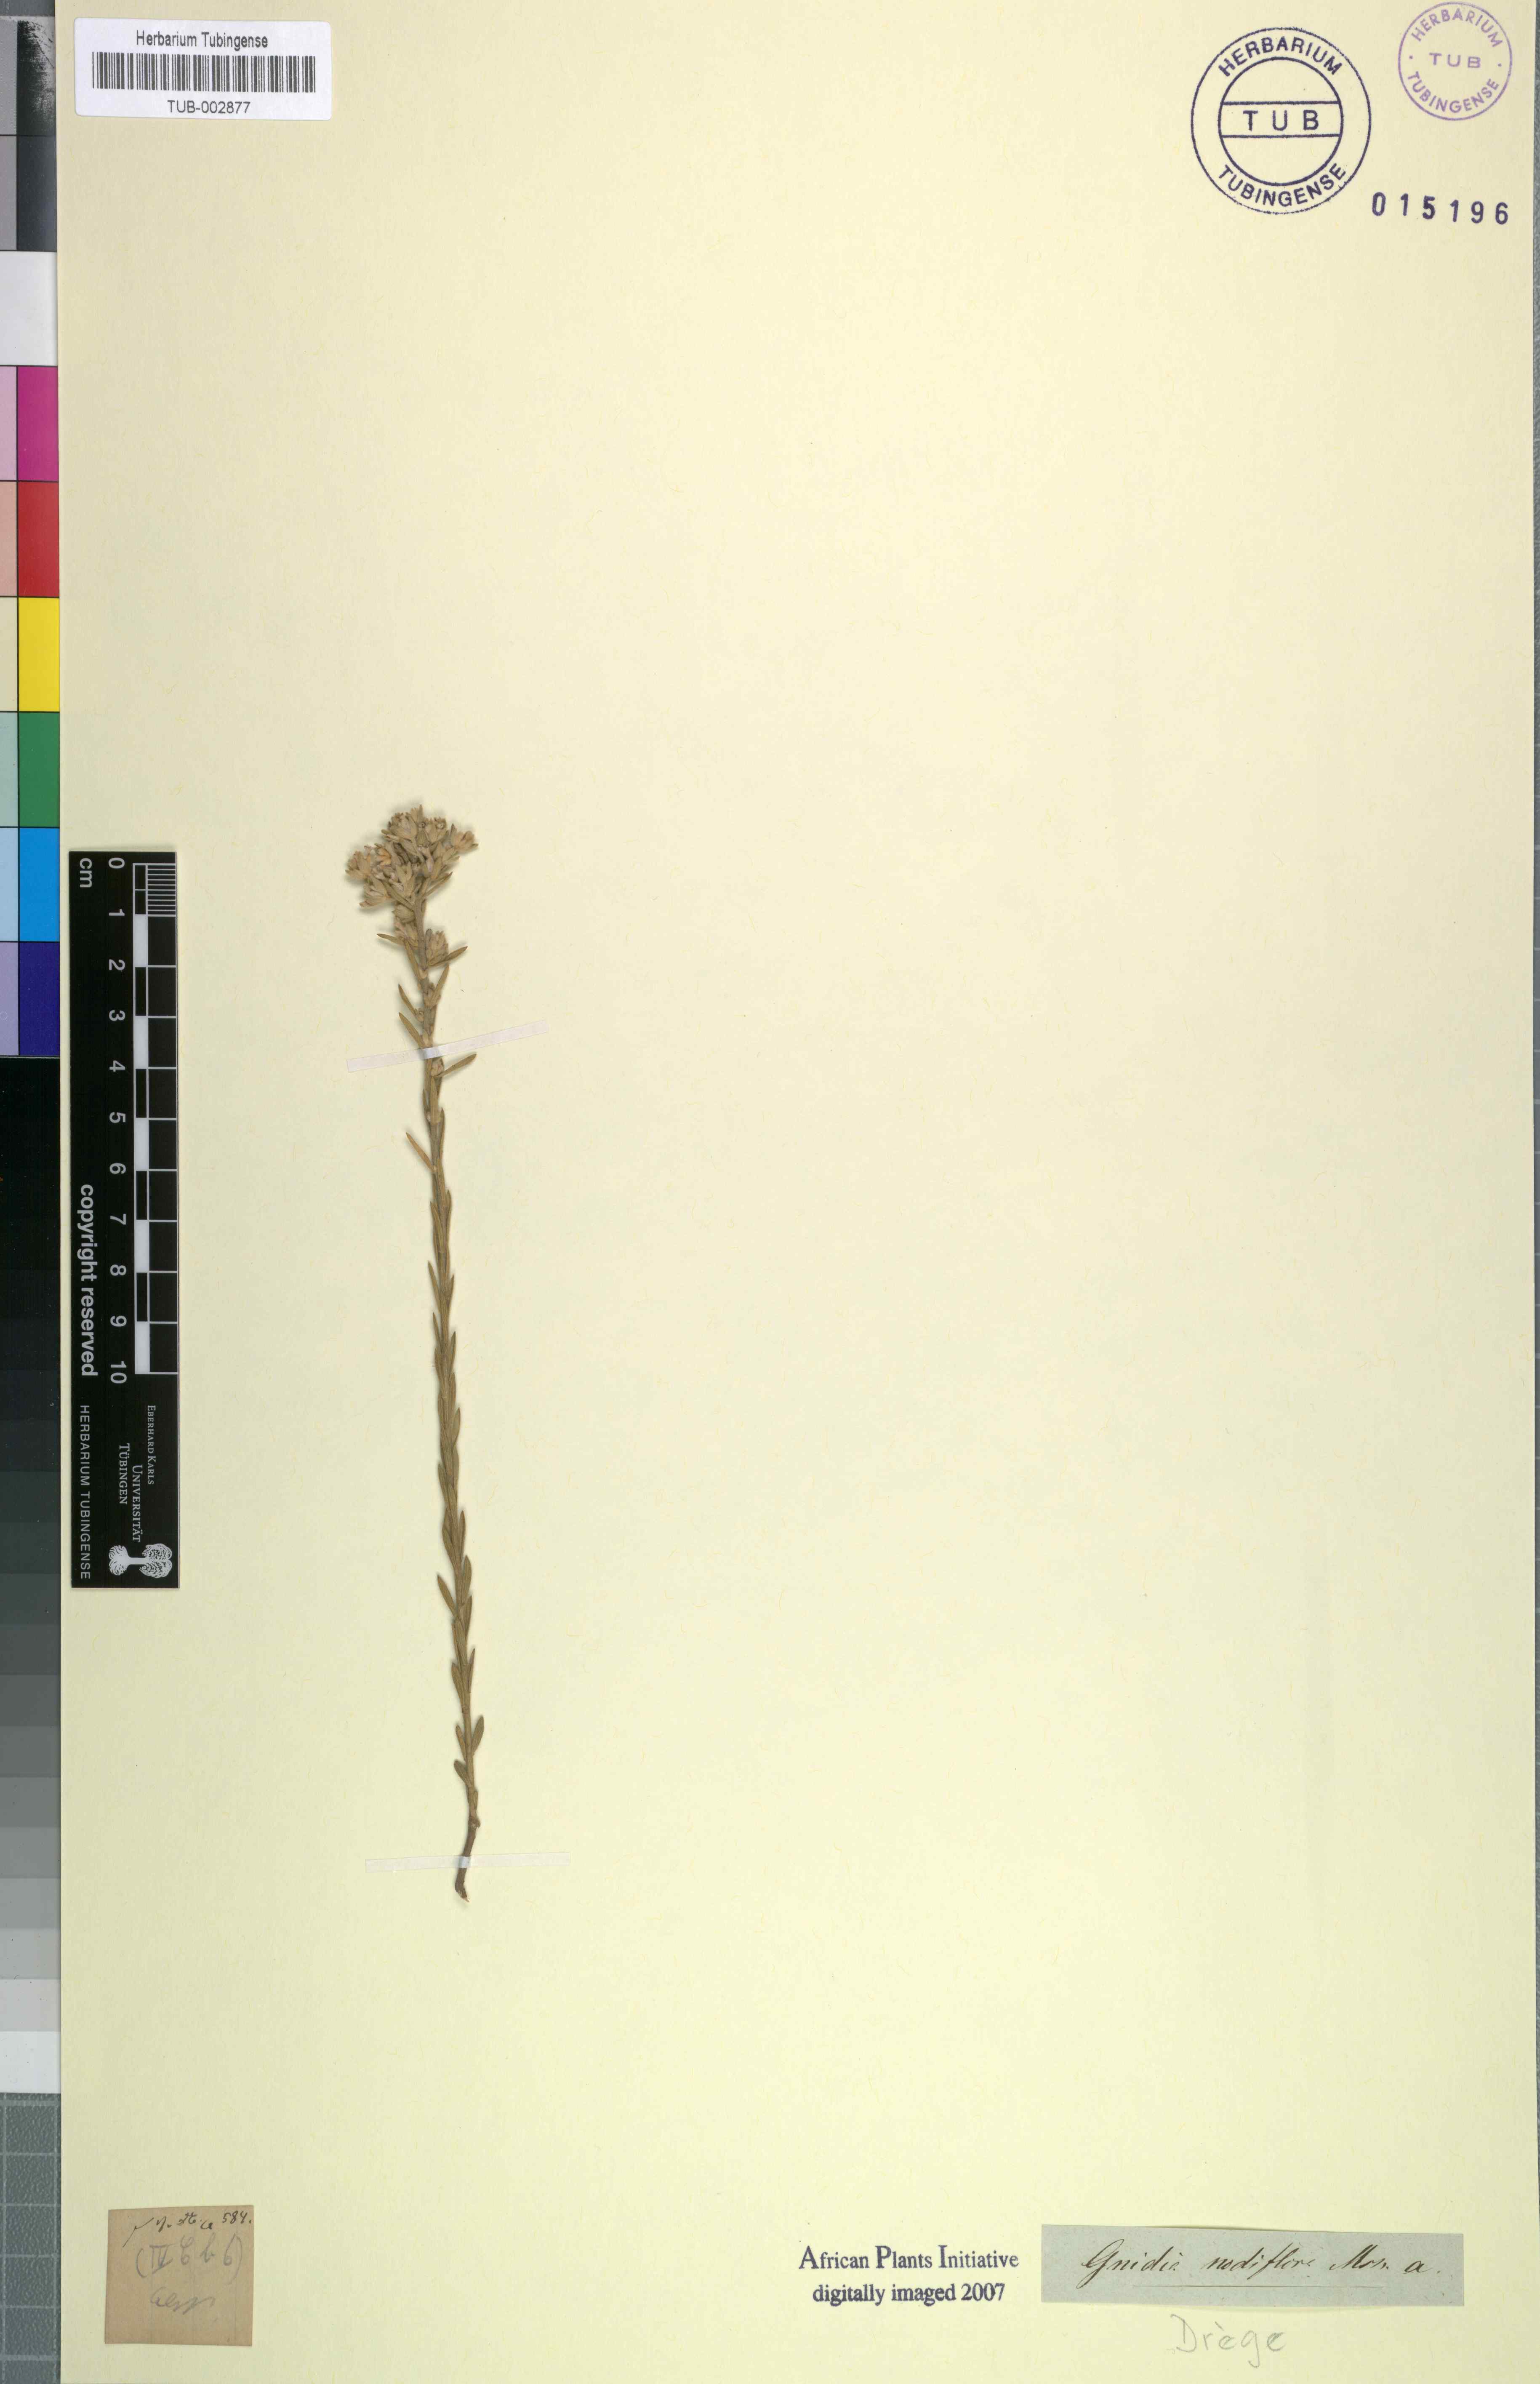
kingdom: Plantae
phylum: Tracheophyta
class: Magnoliopsida
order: Malvales
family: Thymelaeaceae
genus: Gnidia
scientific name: Gnidia nodiflora
